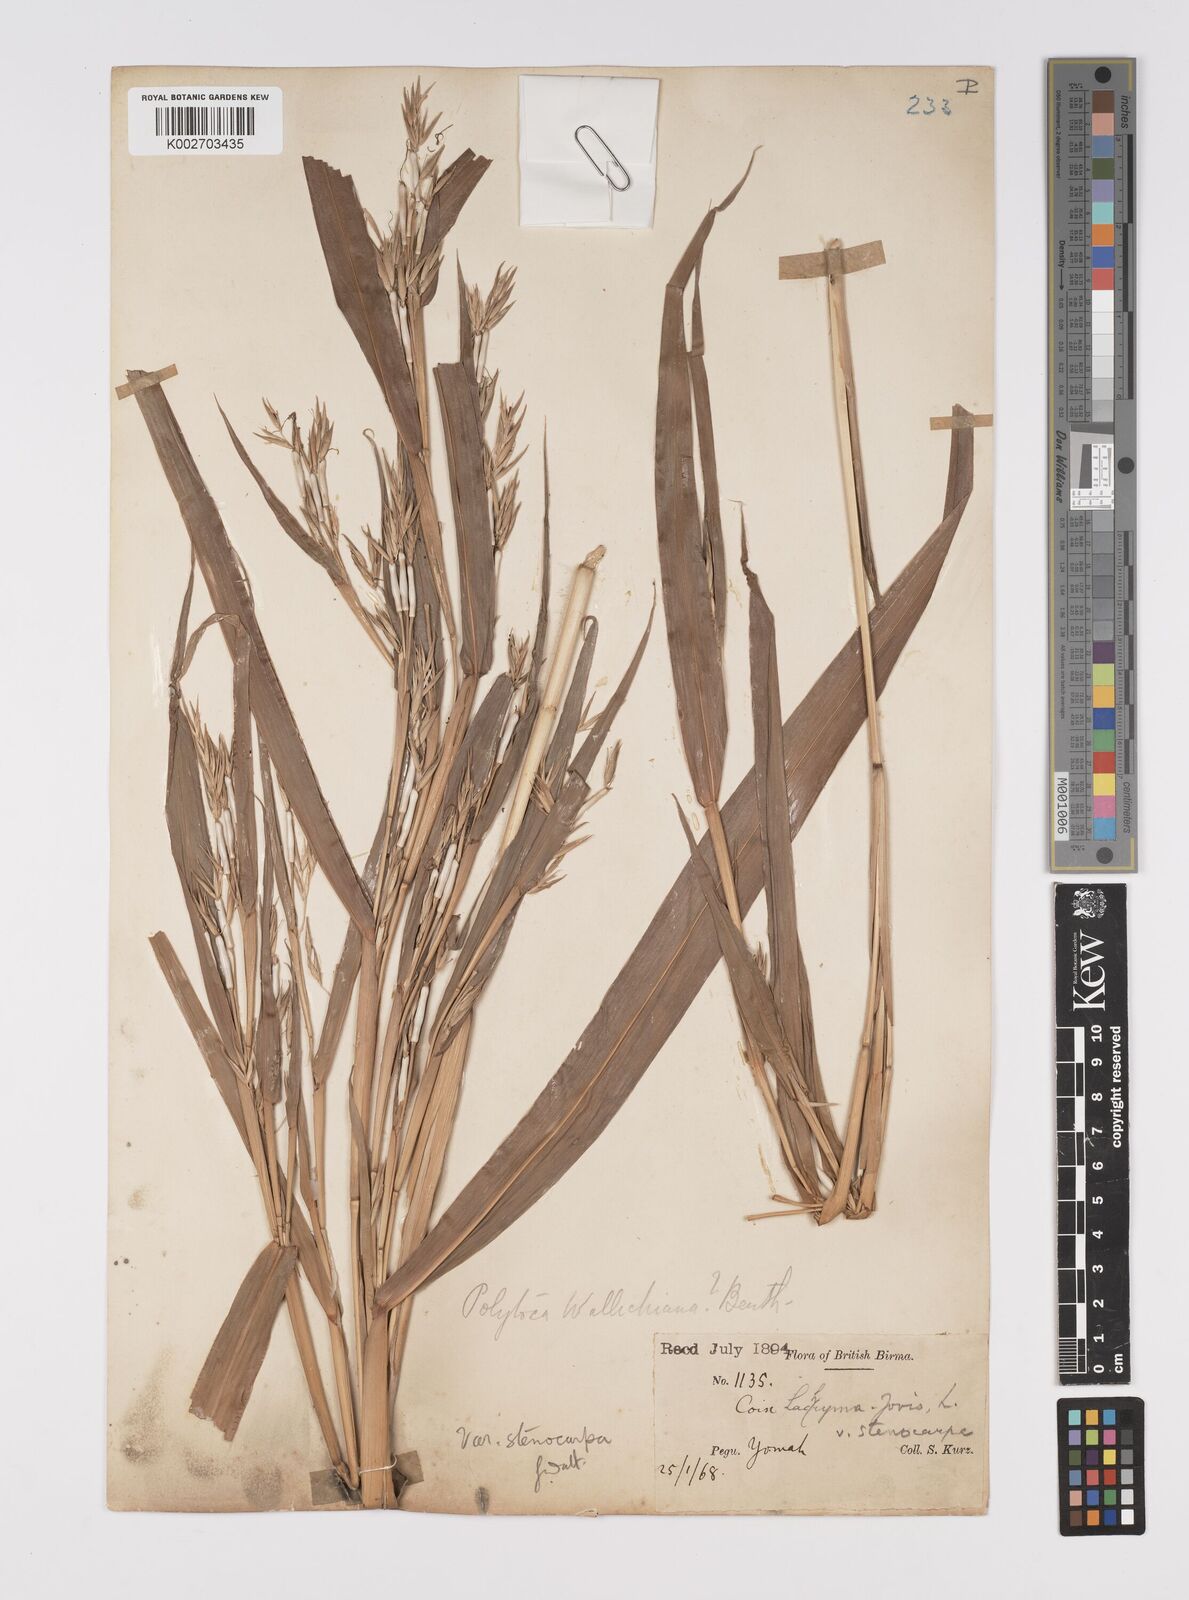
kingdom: Plantae
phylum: Tracheophyta
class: Liliopsida
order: Poales
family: Poaceae
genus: Coix
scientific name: Coix lacryma-jobi
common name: Job's tears
